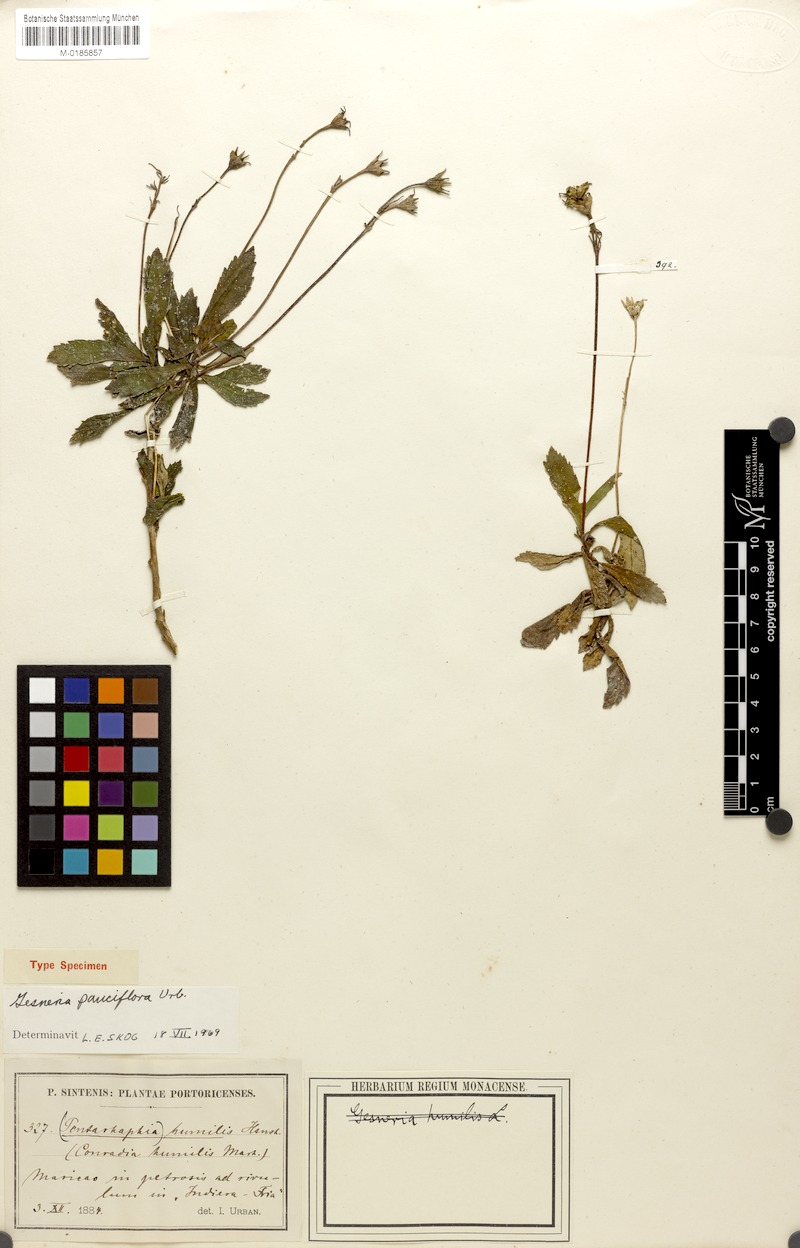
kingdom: Plantae
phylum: Tracheophyta
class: Magnoliopsida
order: Lamiales
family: Gesneriaceae
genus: Gesneria
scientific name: Gesneria pauciflora
